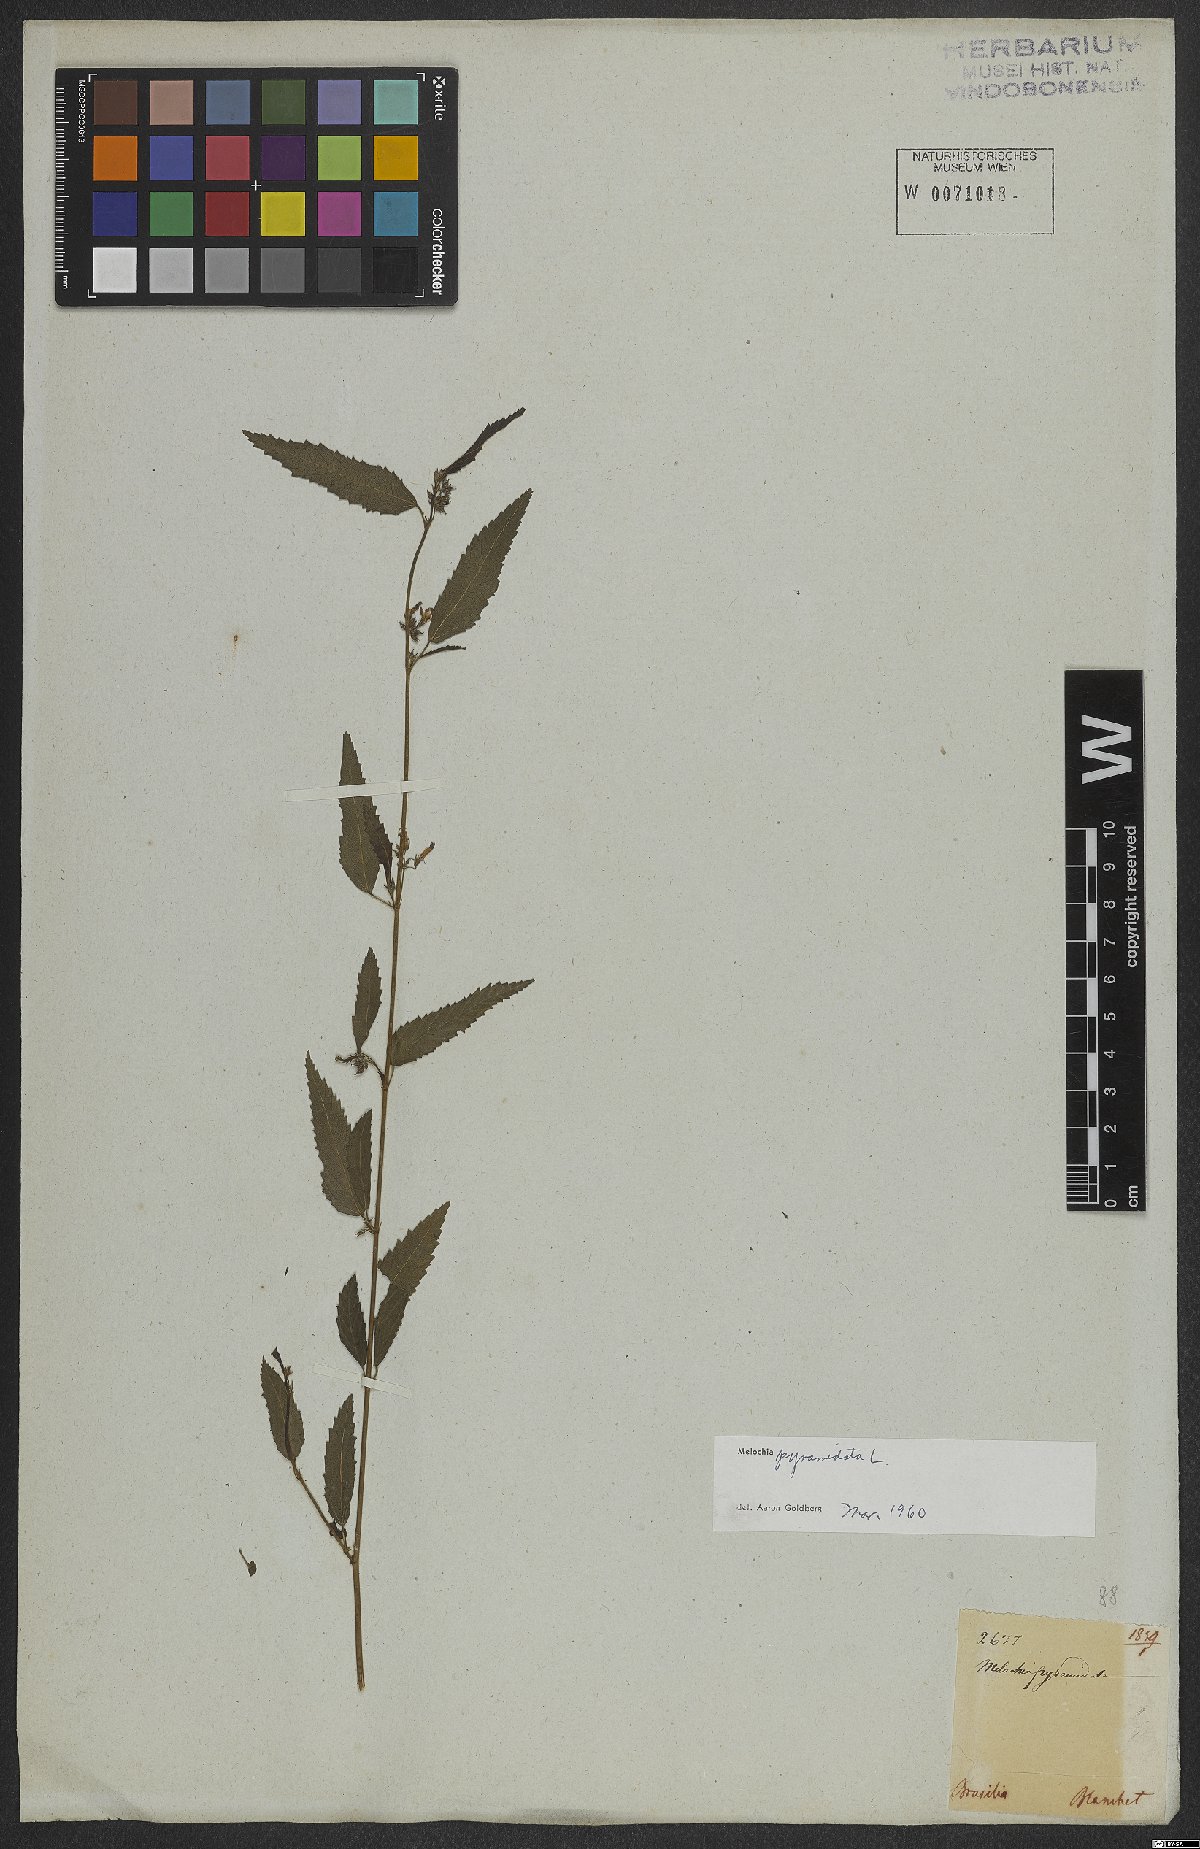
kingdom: Plantae
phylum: Tracheophyta
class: Magnoliopsida
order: Malvales
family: Malvaceae
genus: Melochia
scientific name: Melochia pyramidata
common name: Pyramidflower
